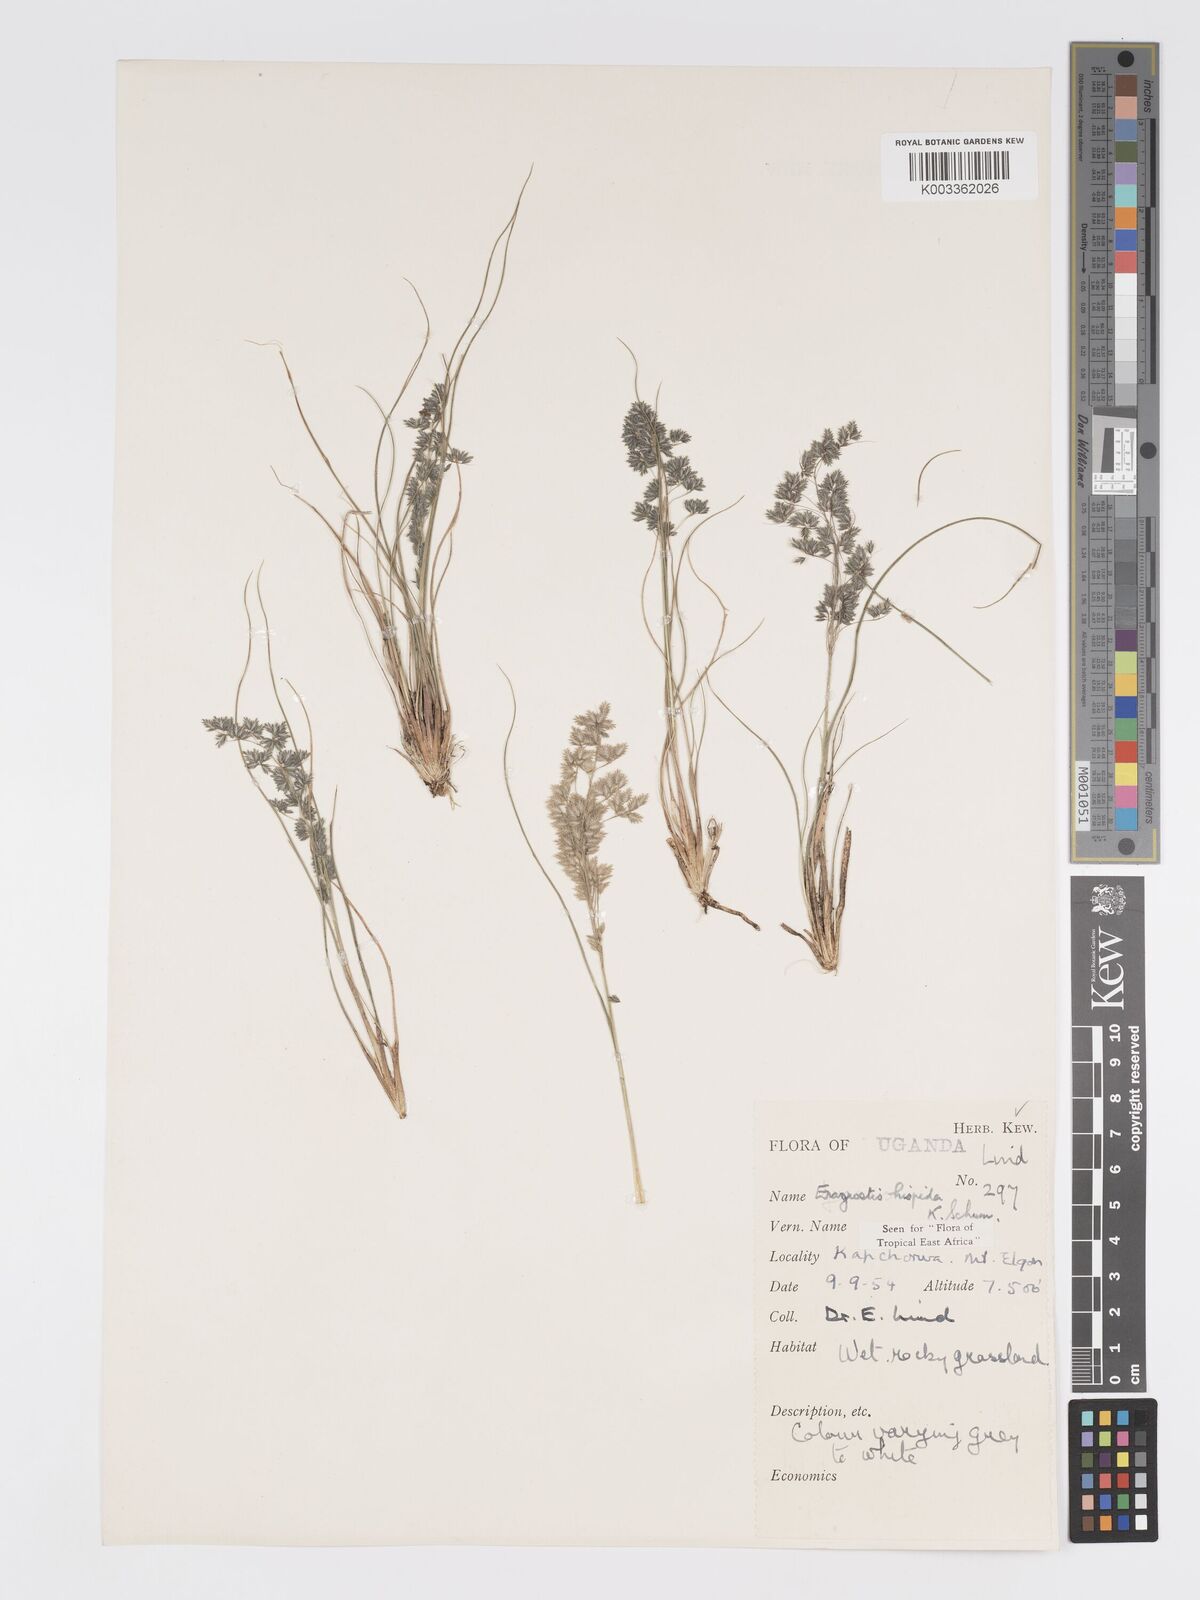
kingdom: Plantae
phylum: Tracheophyta
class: Liliopsida
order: Poales
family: Poaceae
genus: Eragrostis
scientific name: Eragrostis hispida
